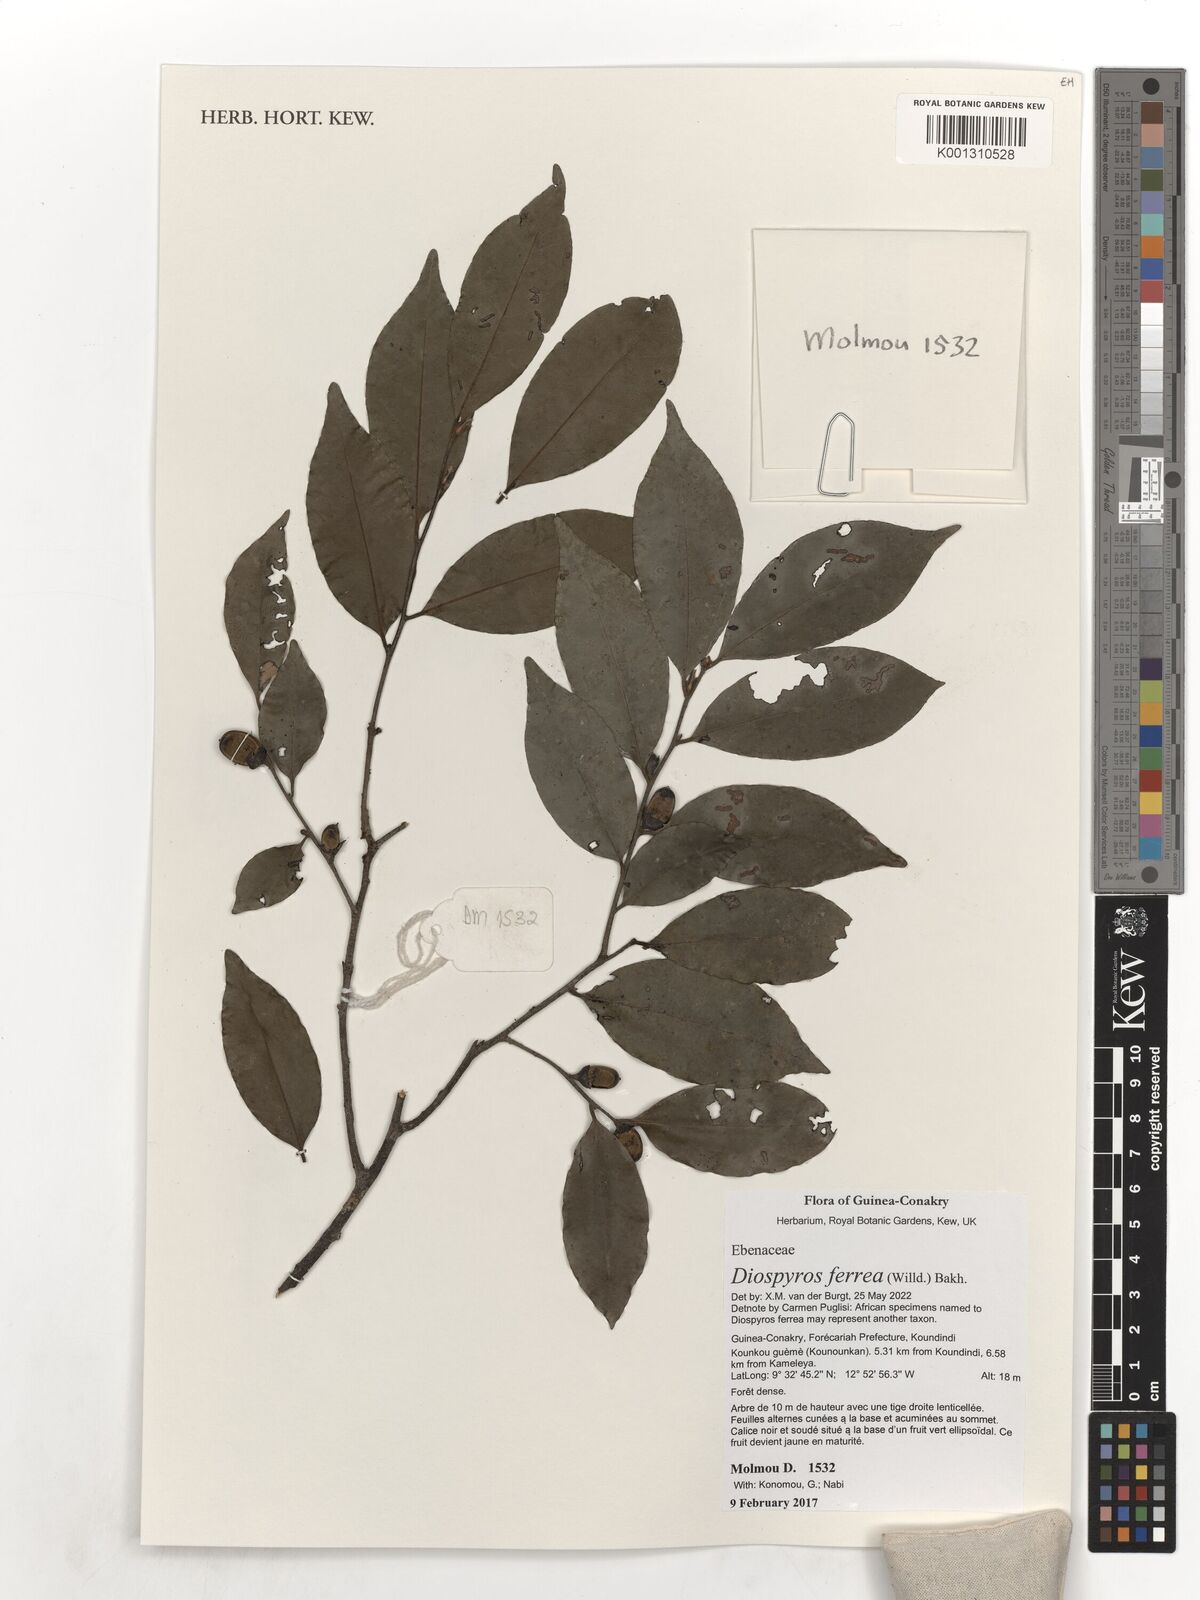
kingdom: Plantae
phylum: Tracheophyta
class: Magnoliopsida
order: Ericales
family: Ebenaceae
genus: Diospyros
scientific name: Diospyros ferrea
